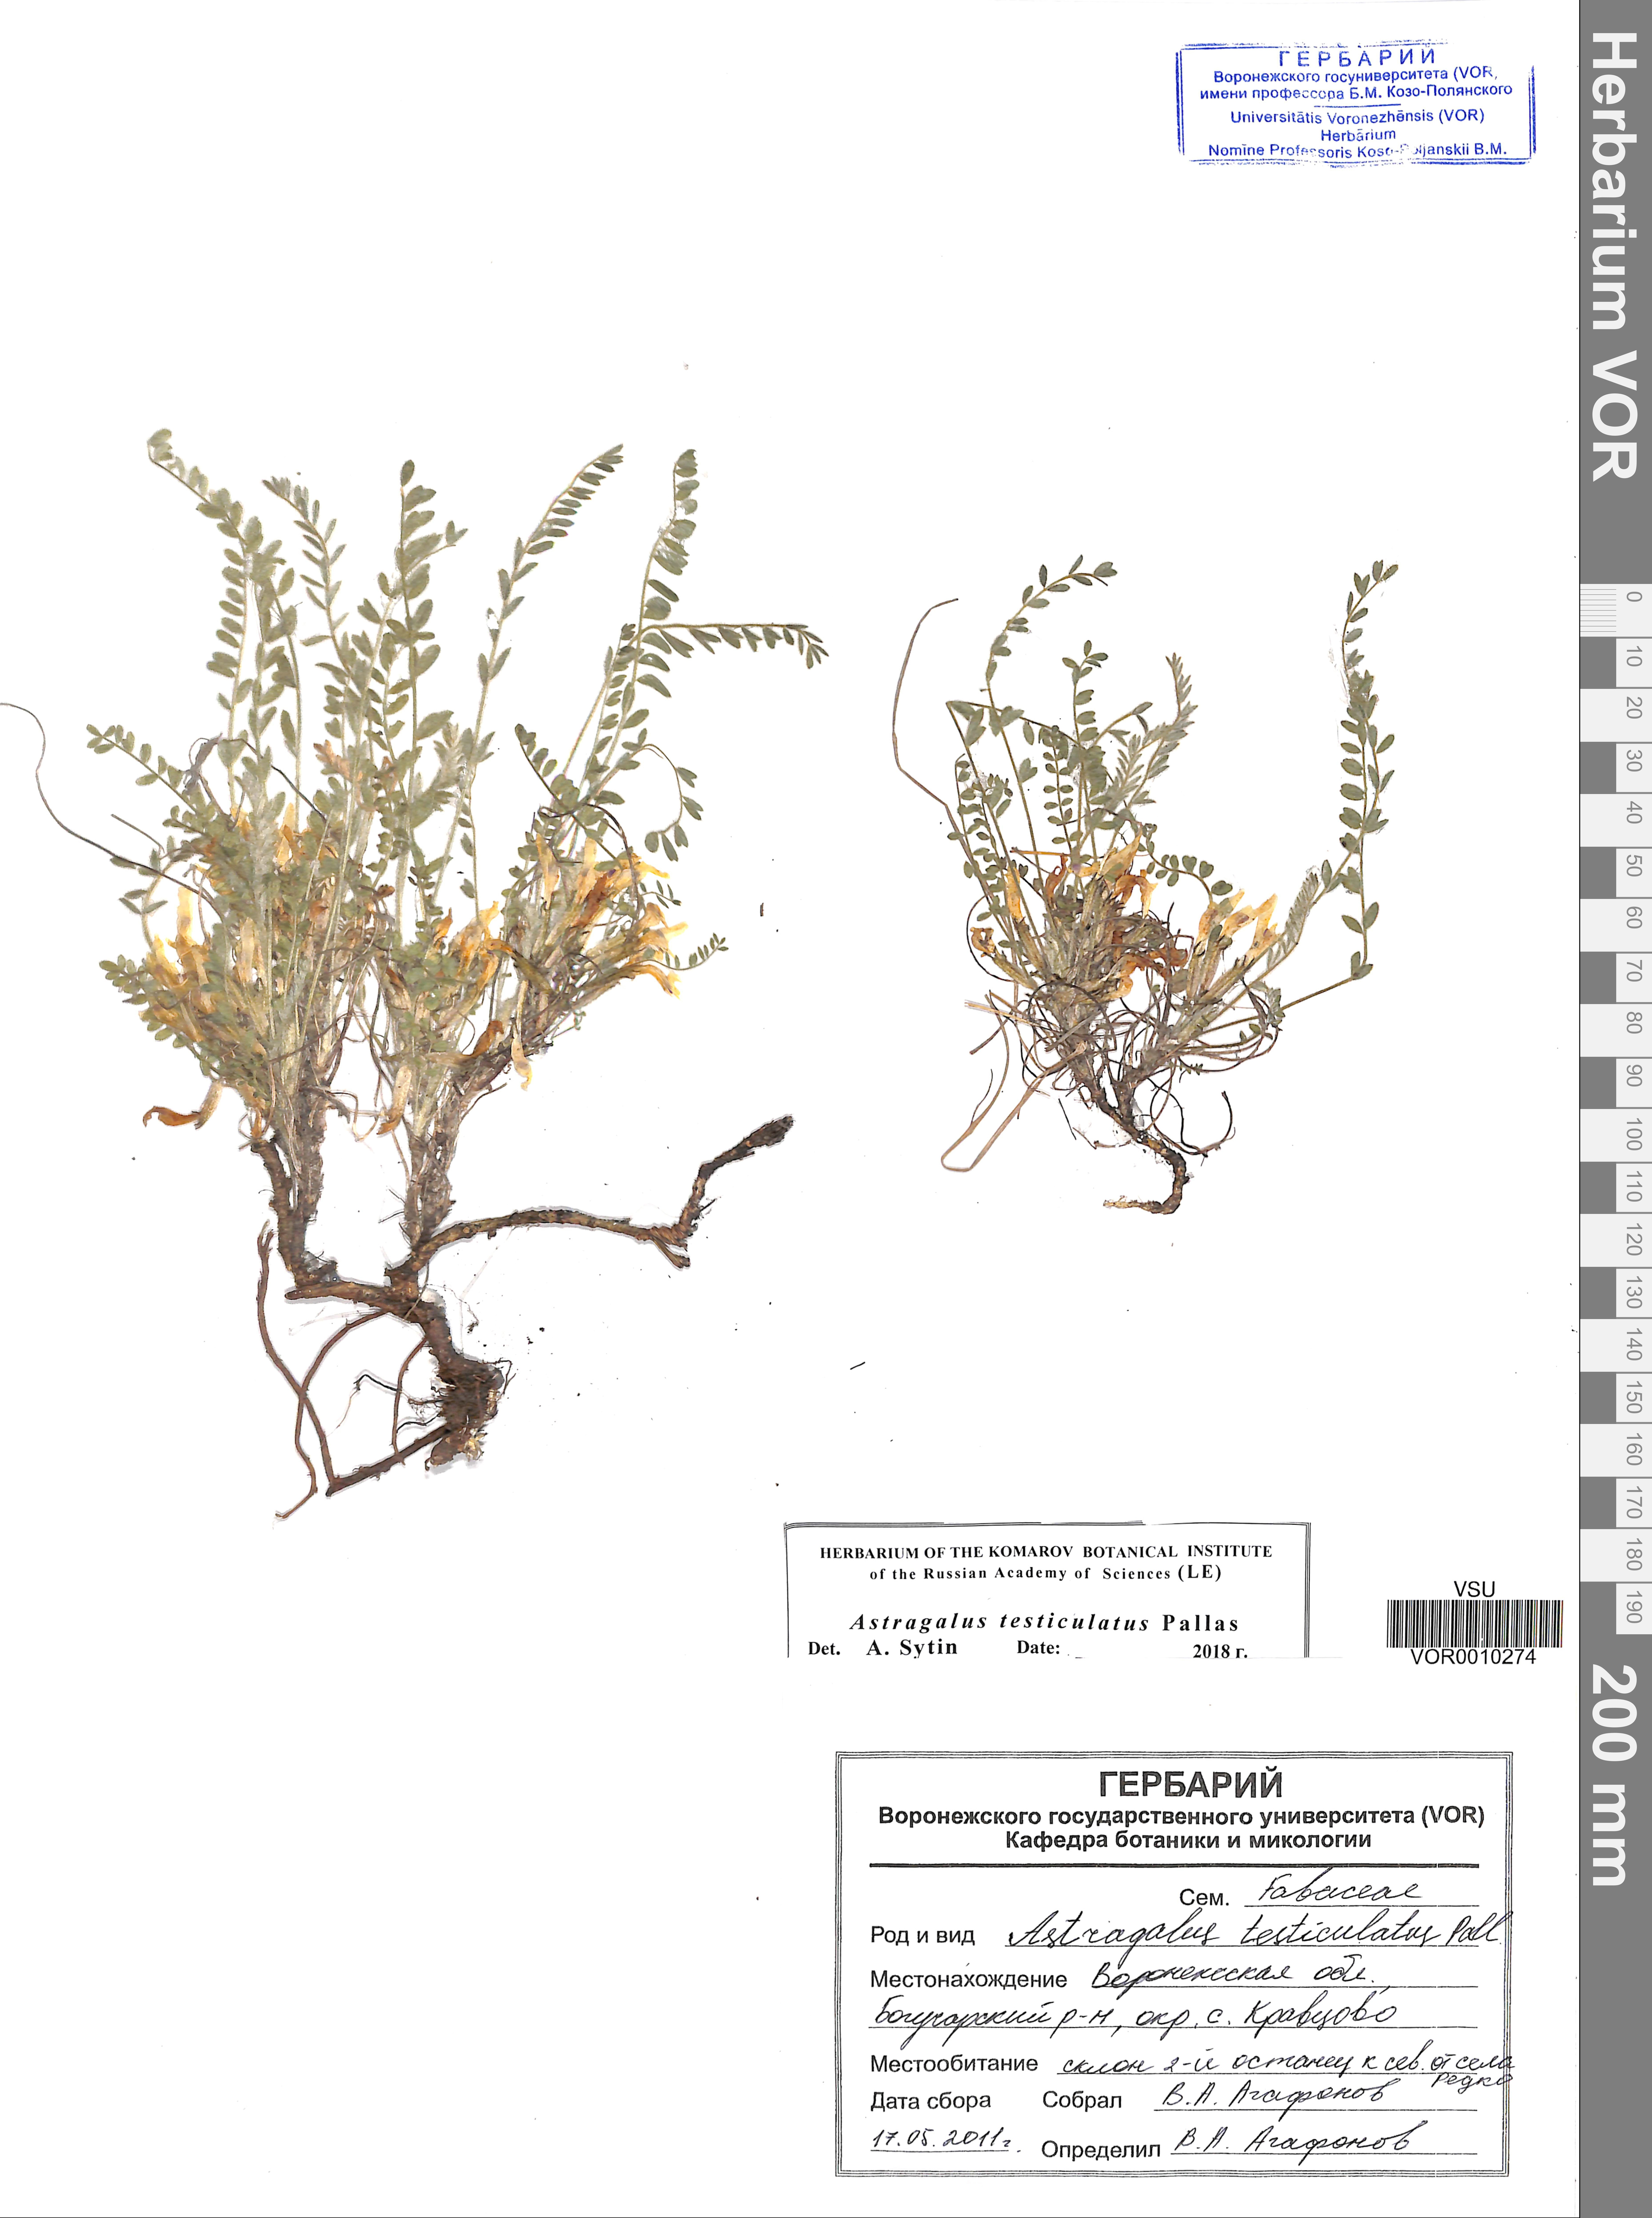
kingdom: Plantae
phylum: Tracheophyta
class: Magnoliopsida
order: Fabales
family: Fabaceae
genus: Astragalus
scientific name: Astragalus testiculatus
